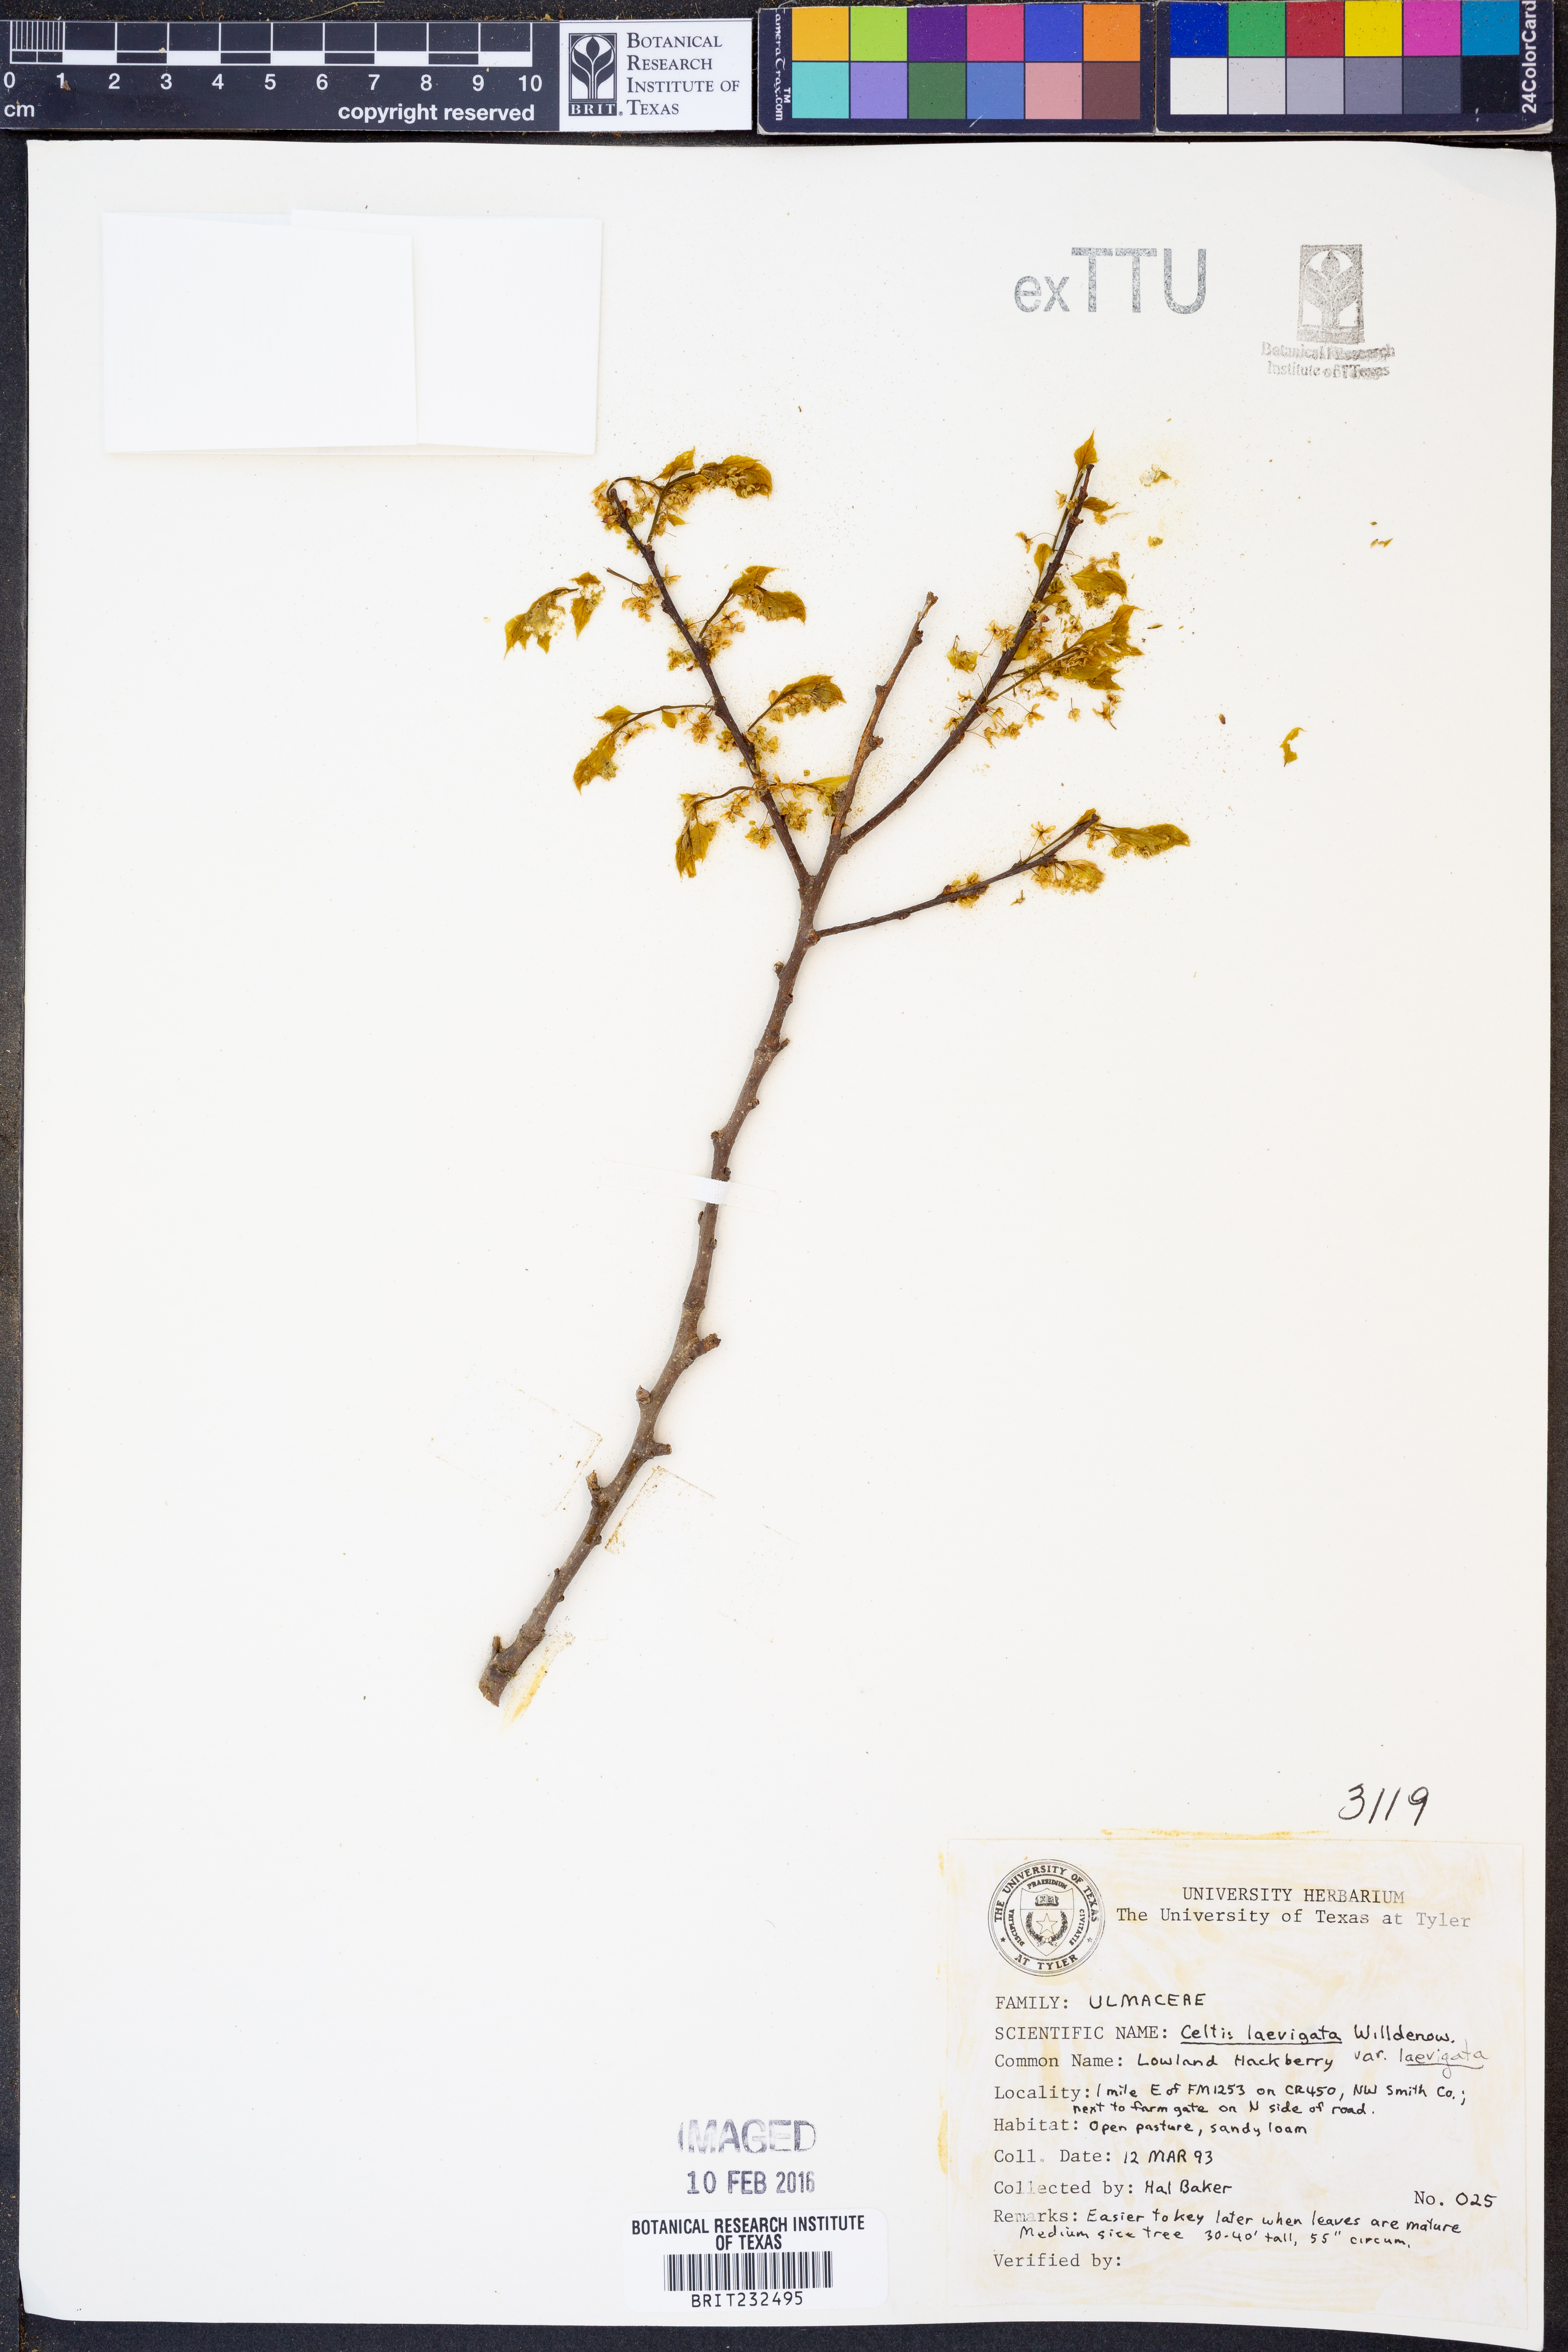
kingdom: Plantae
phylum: Tracheophyta
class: Magnoliopsida
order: Rosales
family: Cannabaceae
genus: Celtis
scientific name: Celtis laevigata
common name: Sugarberry
